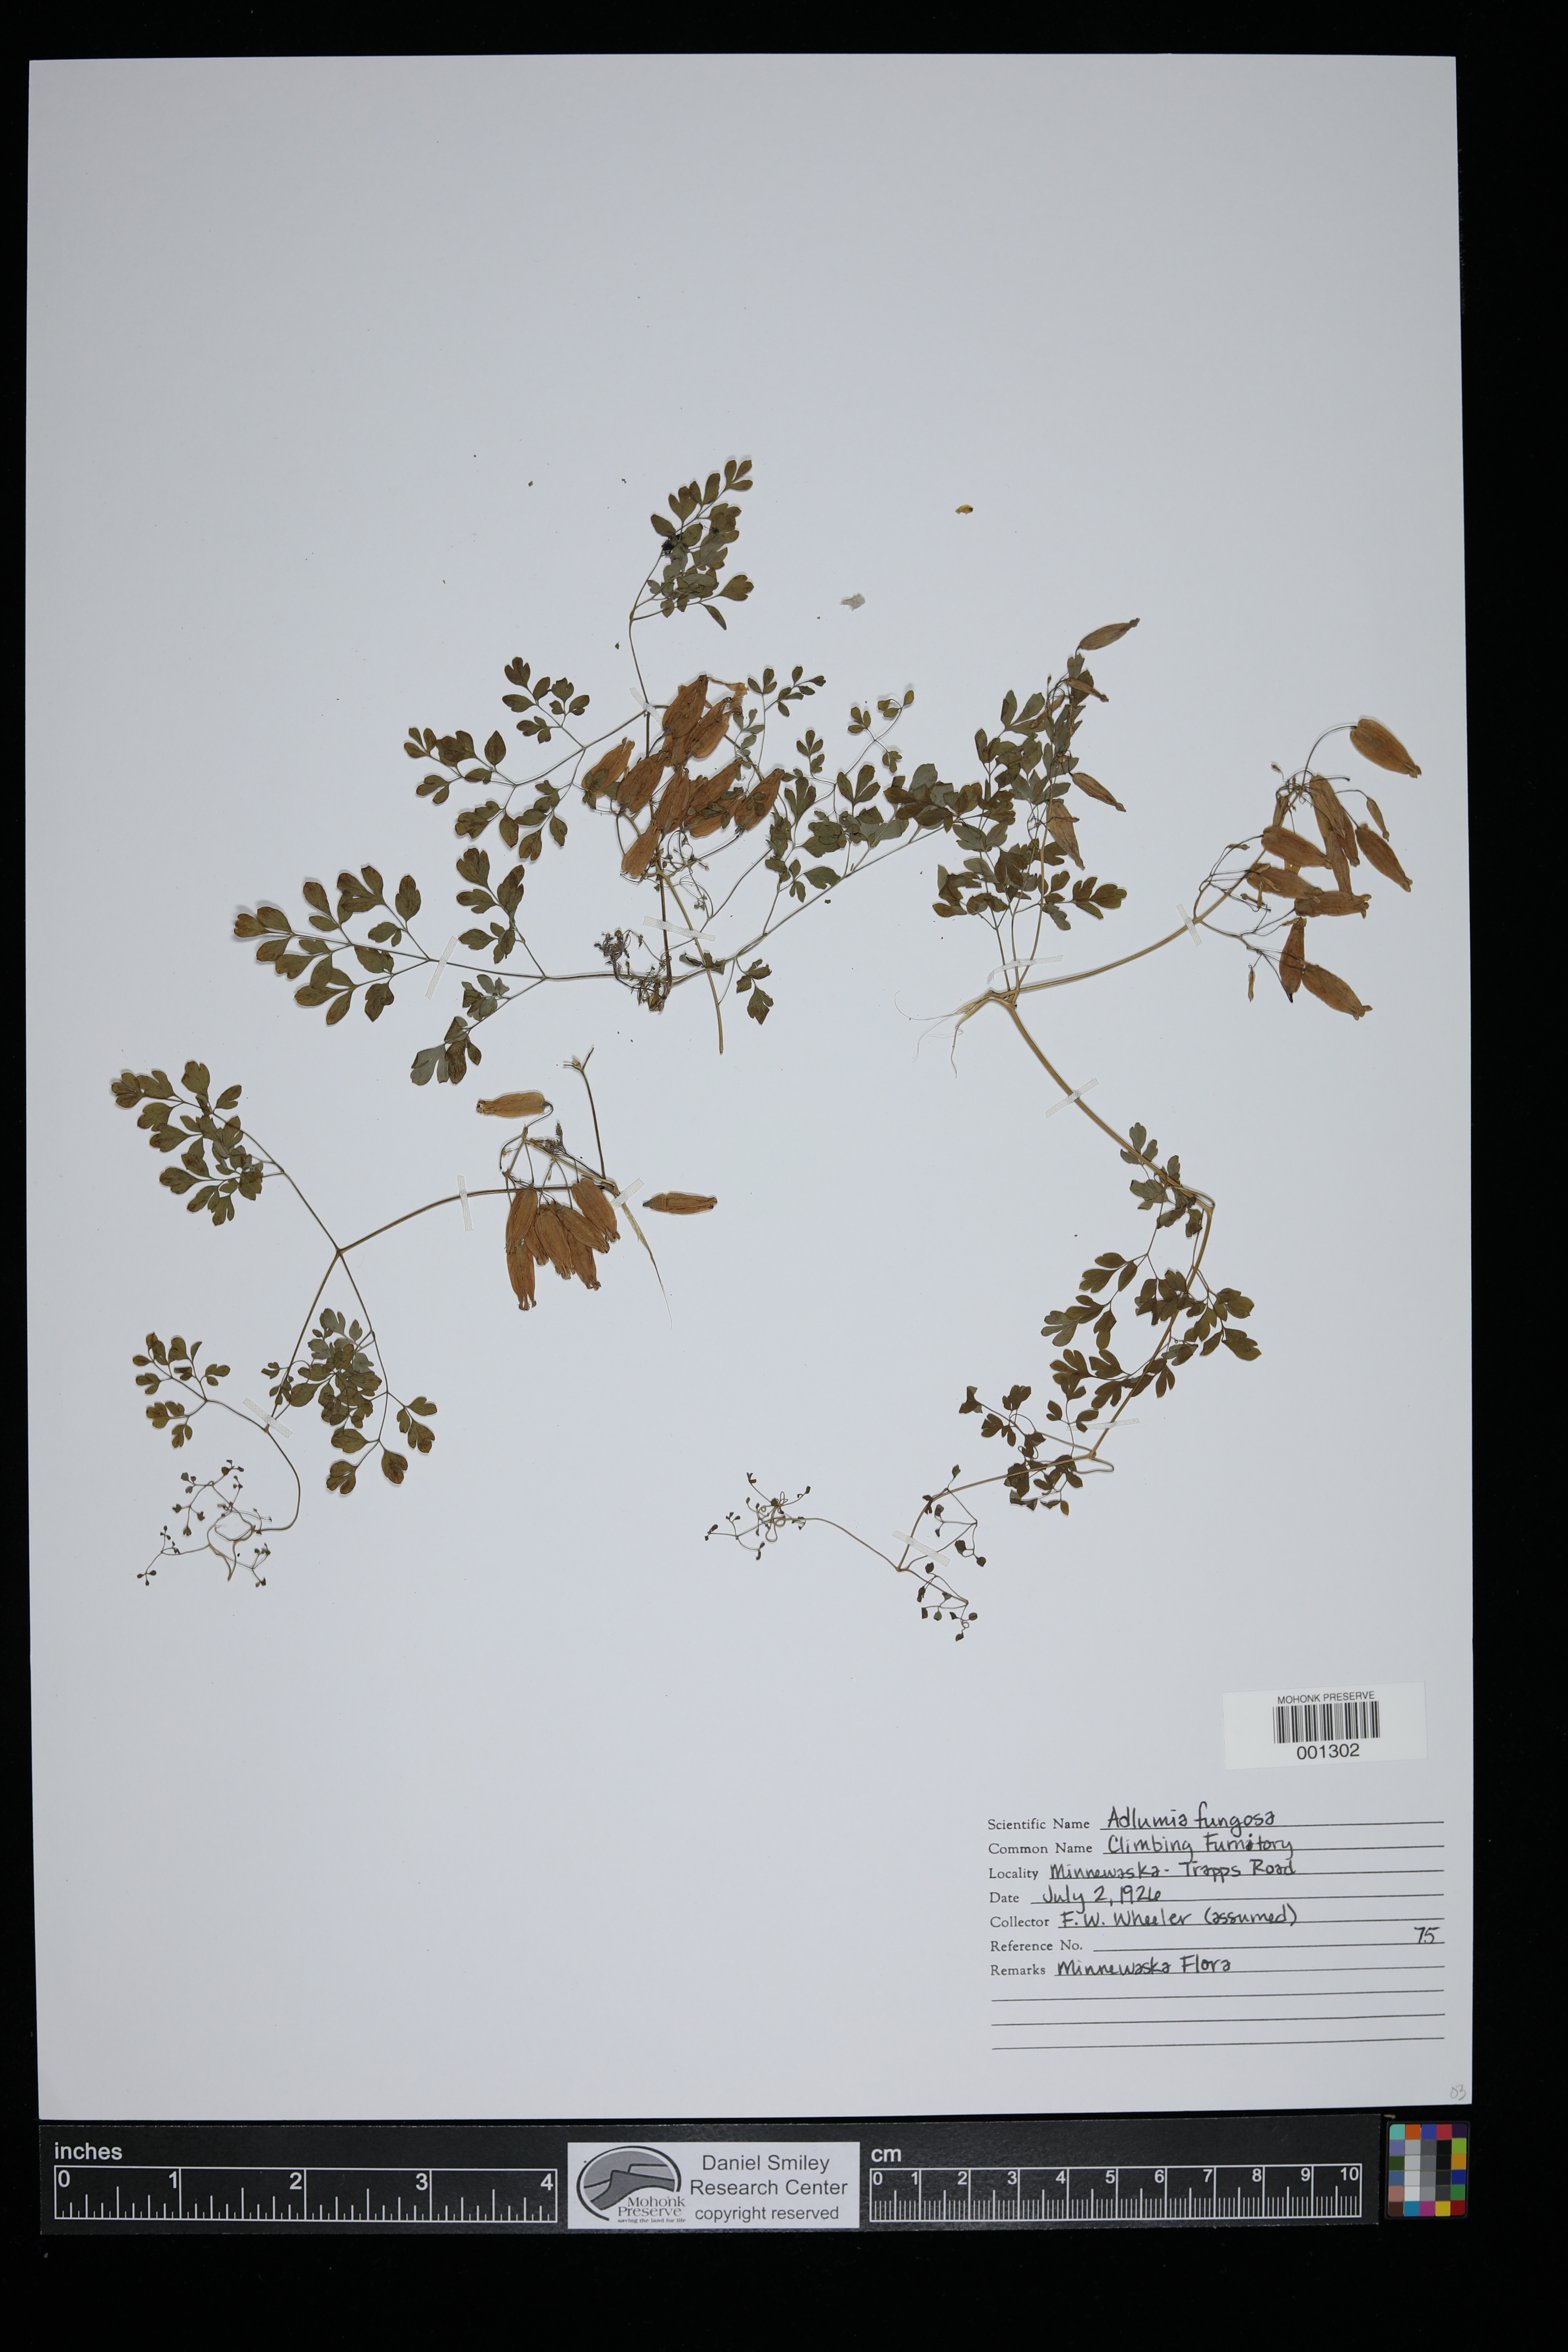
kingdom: Plantae
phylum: Tracheophyta
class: Magnoliopsida
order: Ranunculales
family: Papaveraceae
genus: Adlumia
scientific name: Adlumia fungosa
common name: Mountain-fringe
